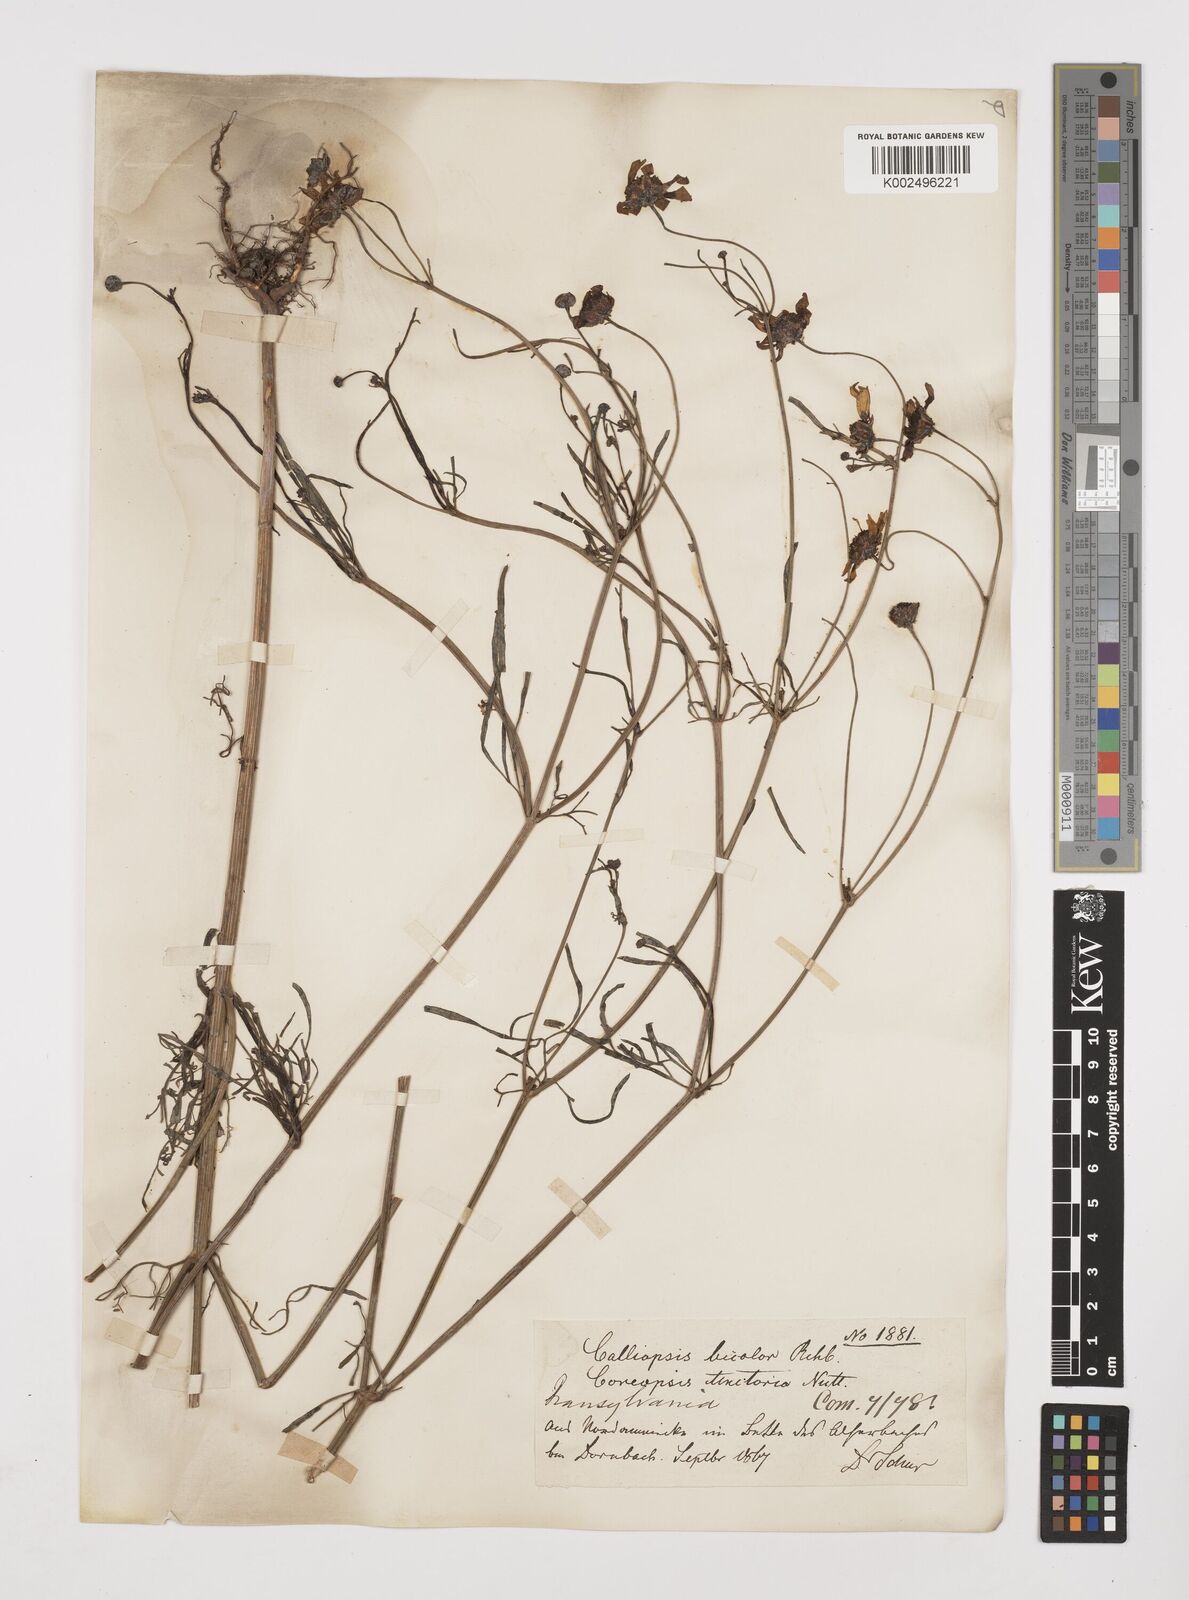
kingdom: Plantae
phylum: Tracheophyta
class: Magnoliopsida
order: Asterales
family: Asteraceae
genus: Coreopsis
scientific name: Coreopsis tinctoria
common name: Garden tickseed
